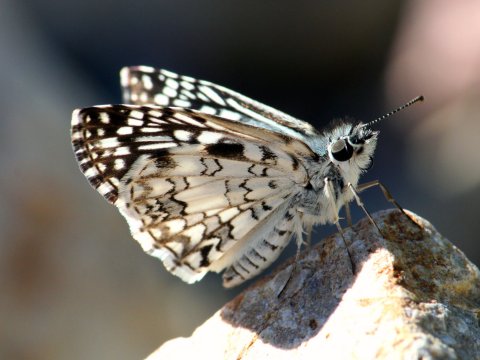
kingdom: Animalia
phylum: Arthropoda
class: Insecta
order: Lepidoptera
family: Hesperiidae
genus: Pyrgus
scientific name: Pyrgus oileus
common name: Tropical Checkered-Skipper
